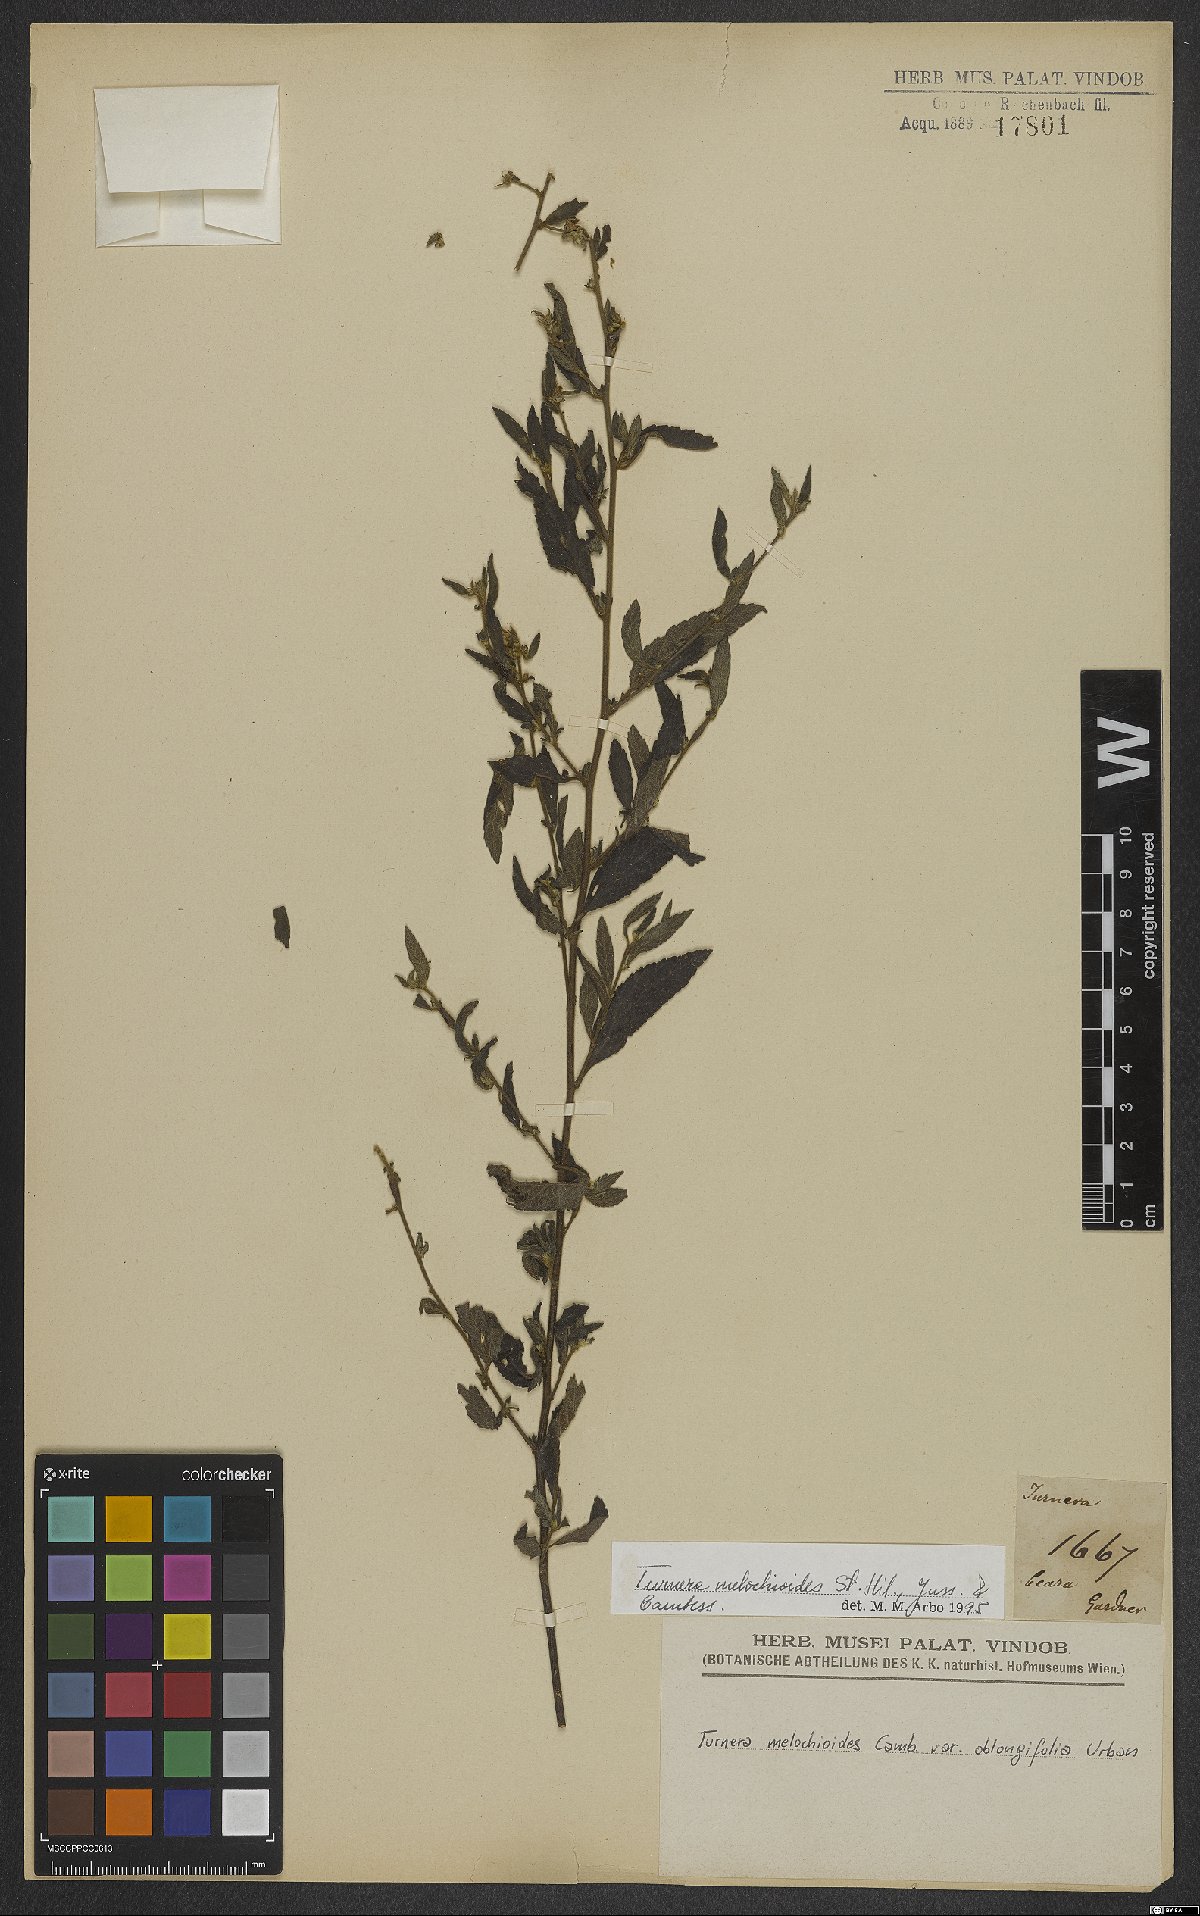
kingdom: Plantae
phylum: Tracheophyta
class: Magnoliopsida
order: Malpighiales
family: Turneraceae
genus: Turnera
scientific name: Turnera melochioides
